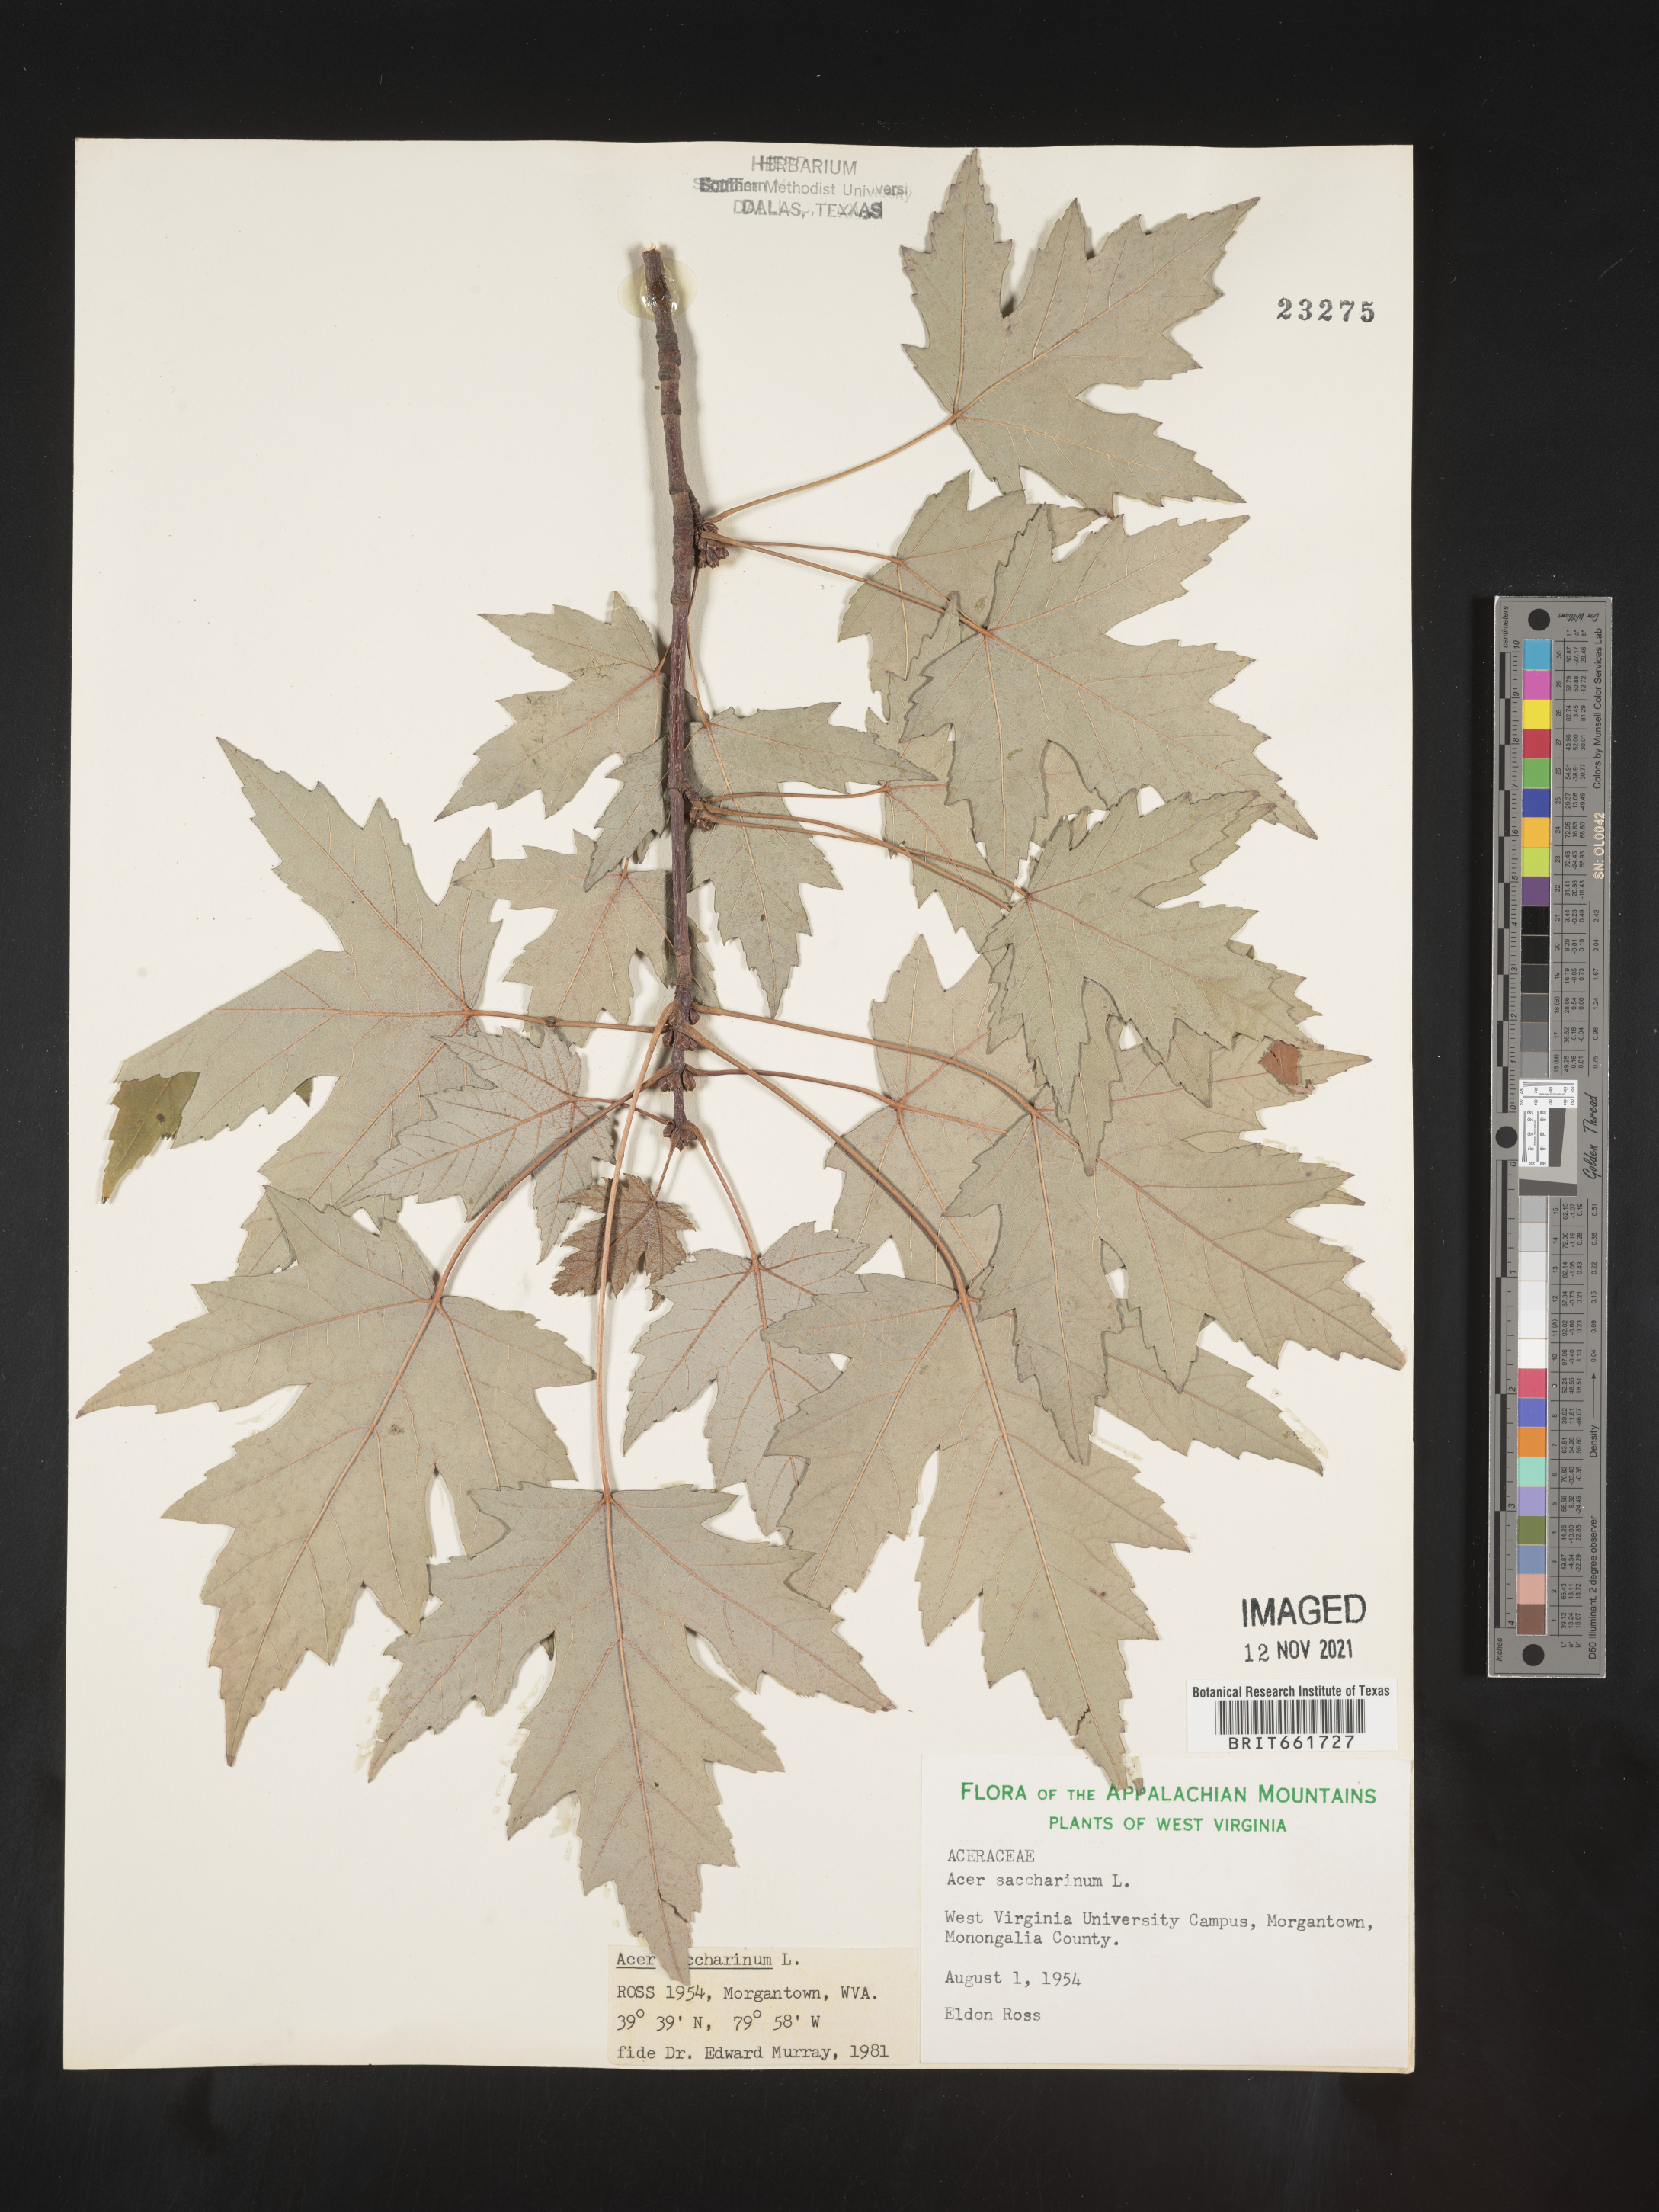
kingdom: Plantae
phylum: Tracheophyta
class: Magnoliopsida
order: Sapindales
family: Sapindaceae
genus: Acer
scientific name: Acer saccharinum
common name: Silver maple
